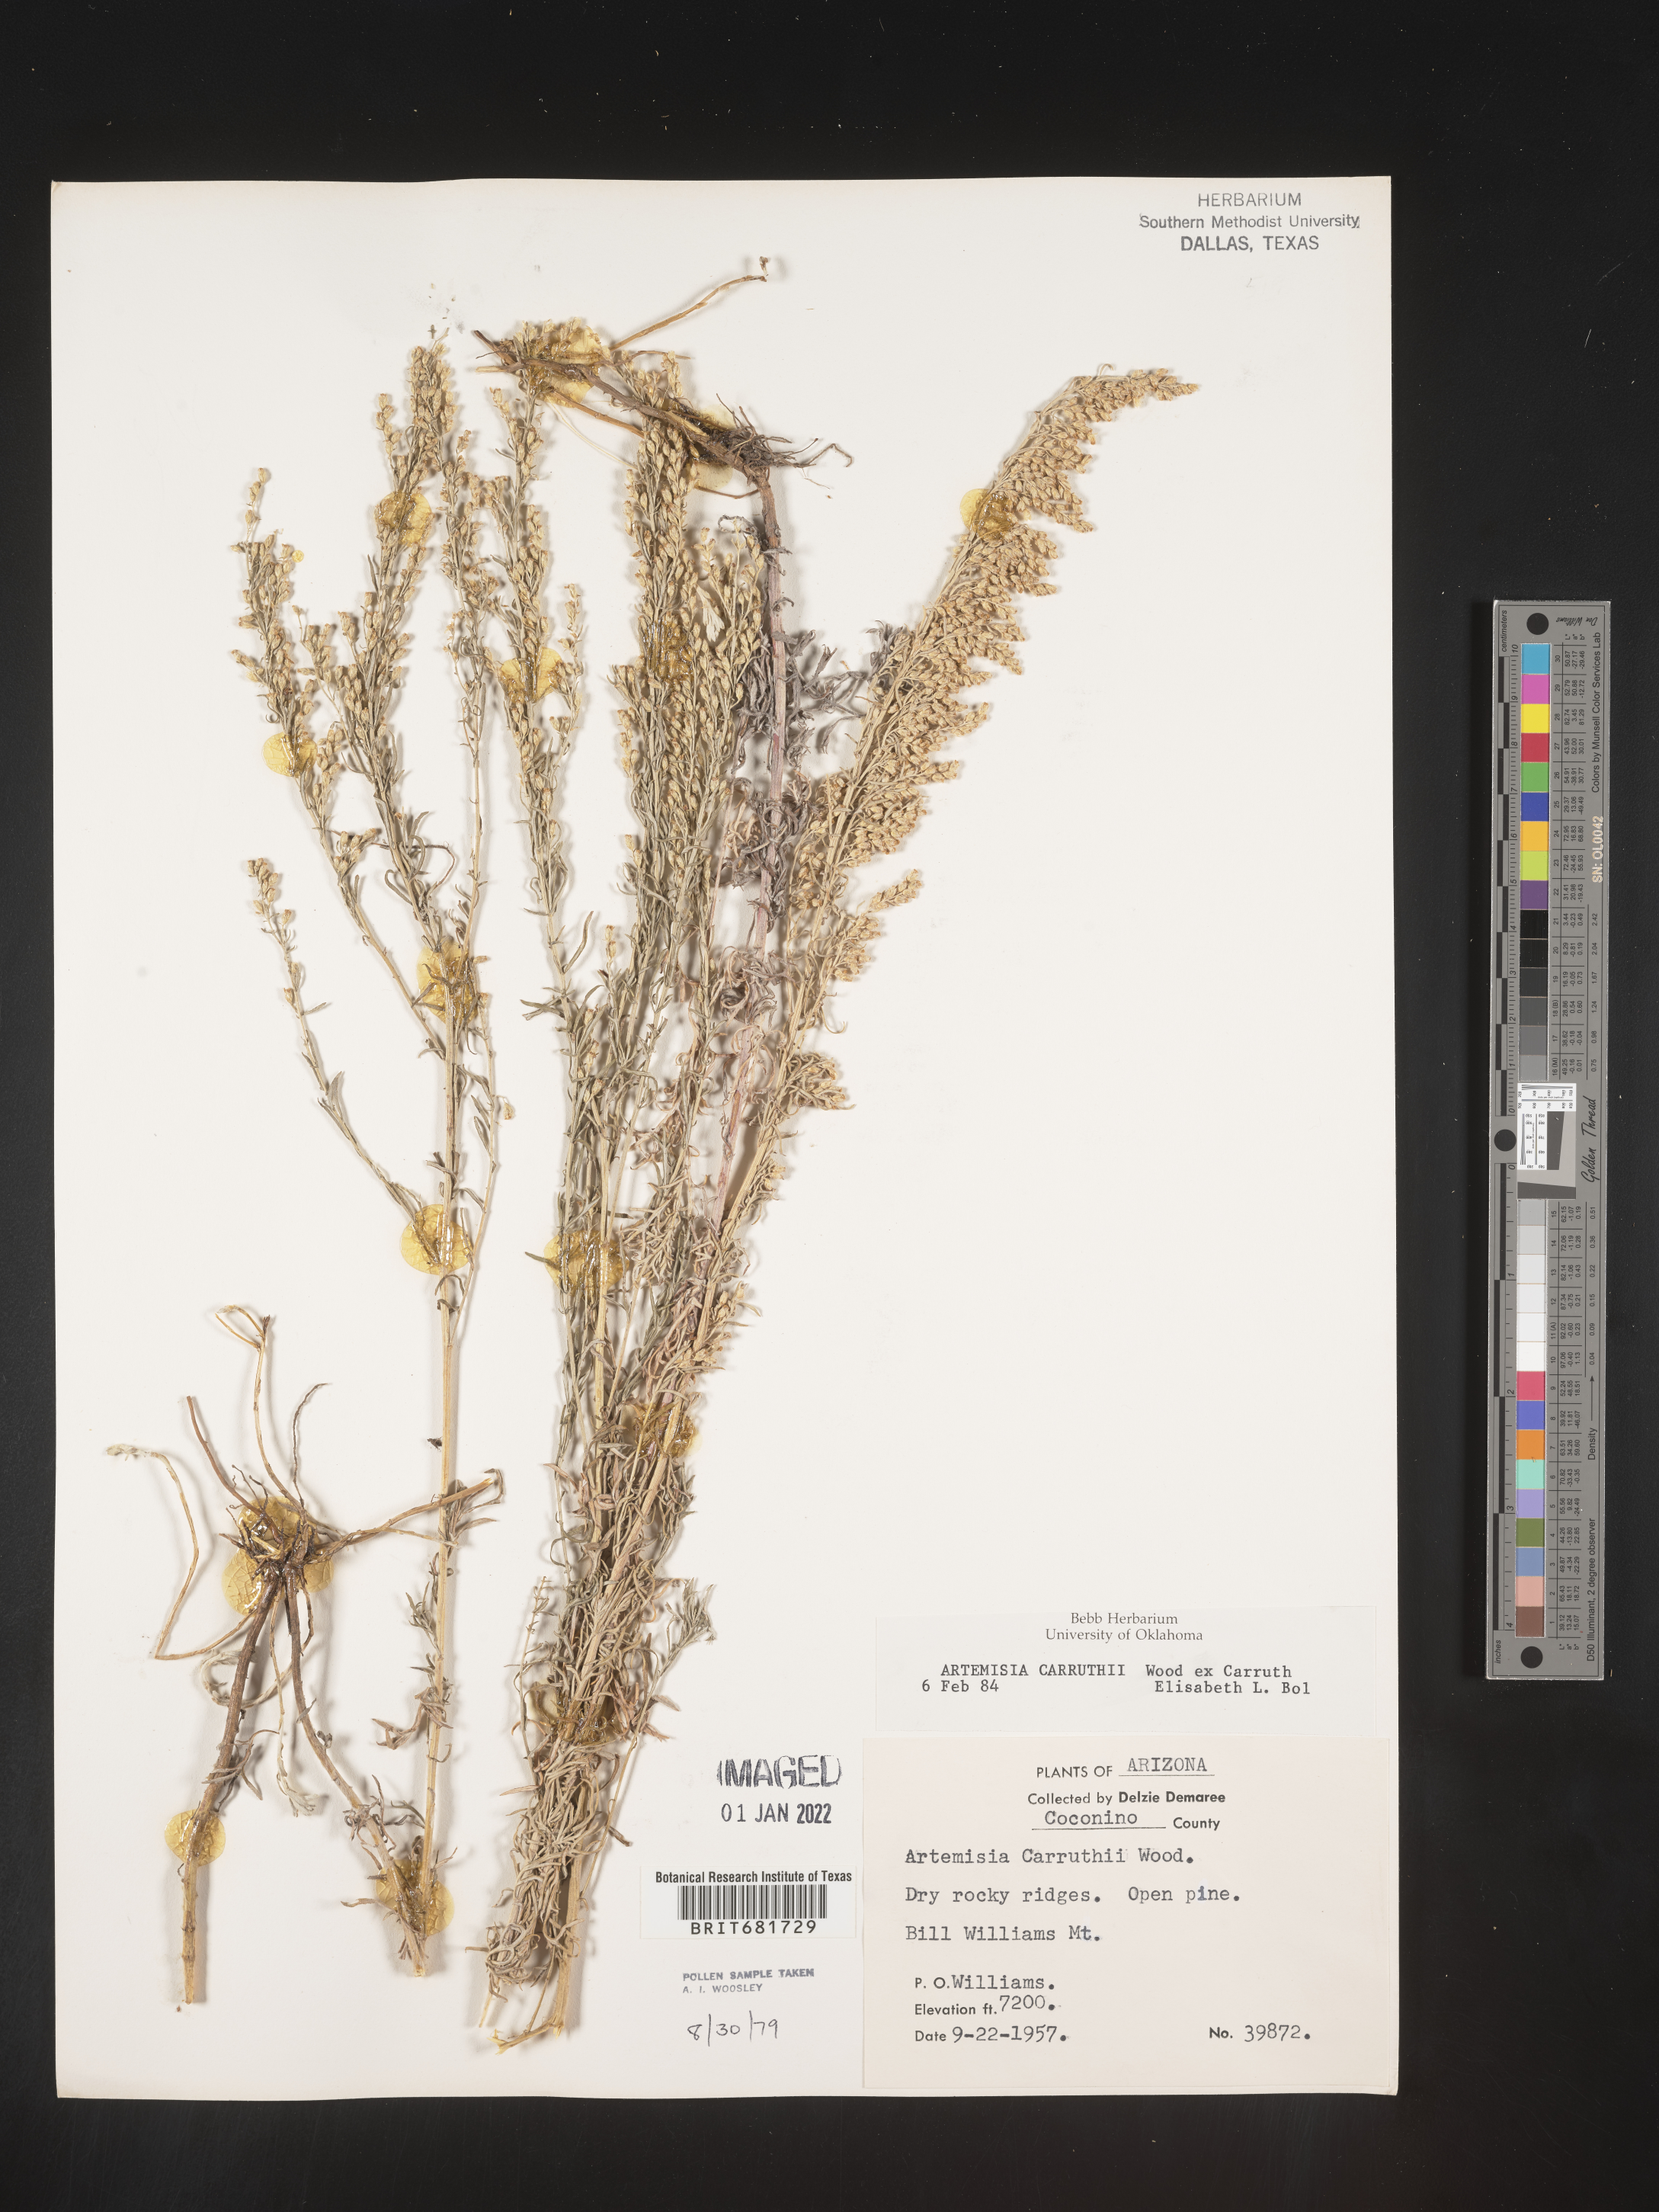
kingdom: Plantae
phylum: Tracheophyta
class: Magnoliopsida
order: Asterales
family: Asteraceae
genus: Artemisia
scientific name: Artemisia carruthii
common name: Carruth wormwood
